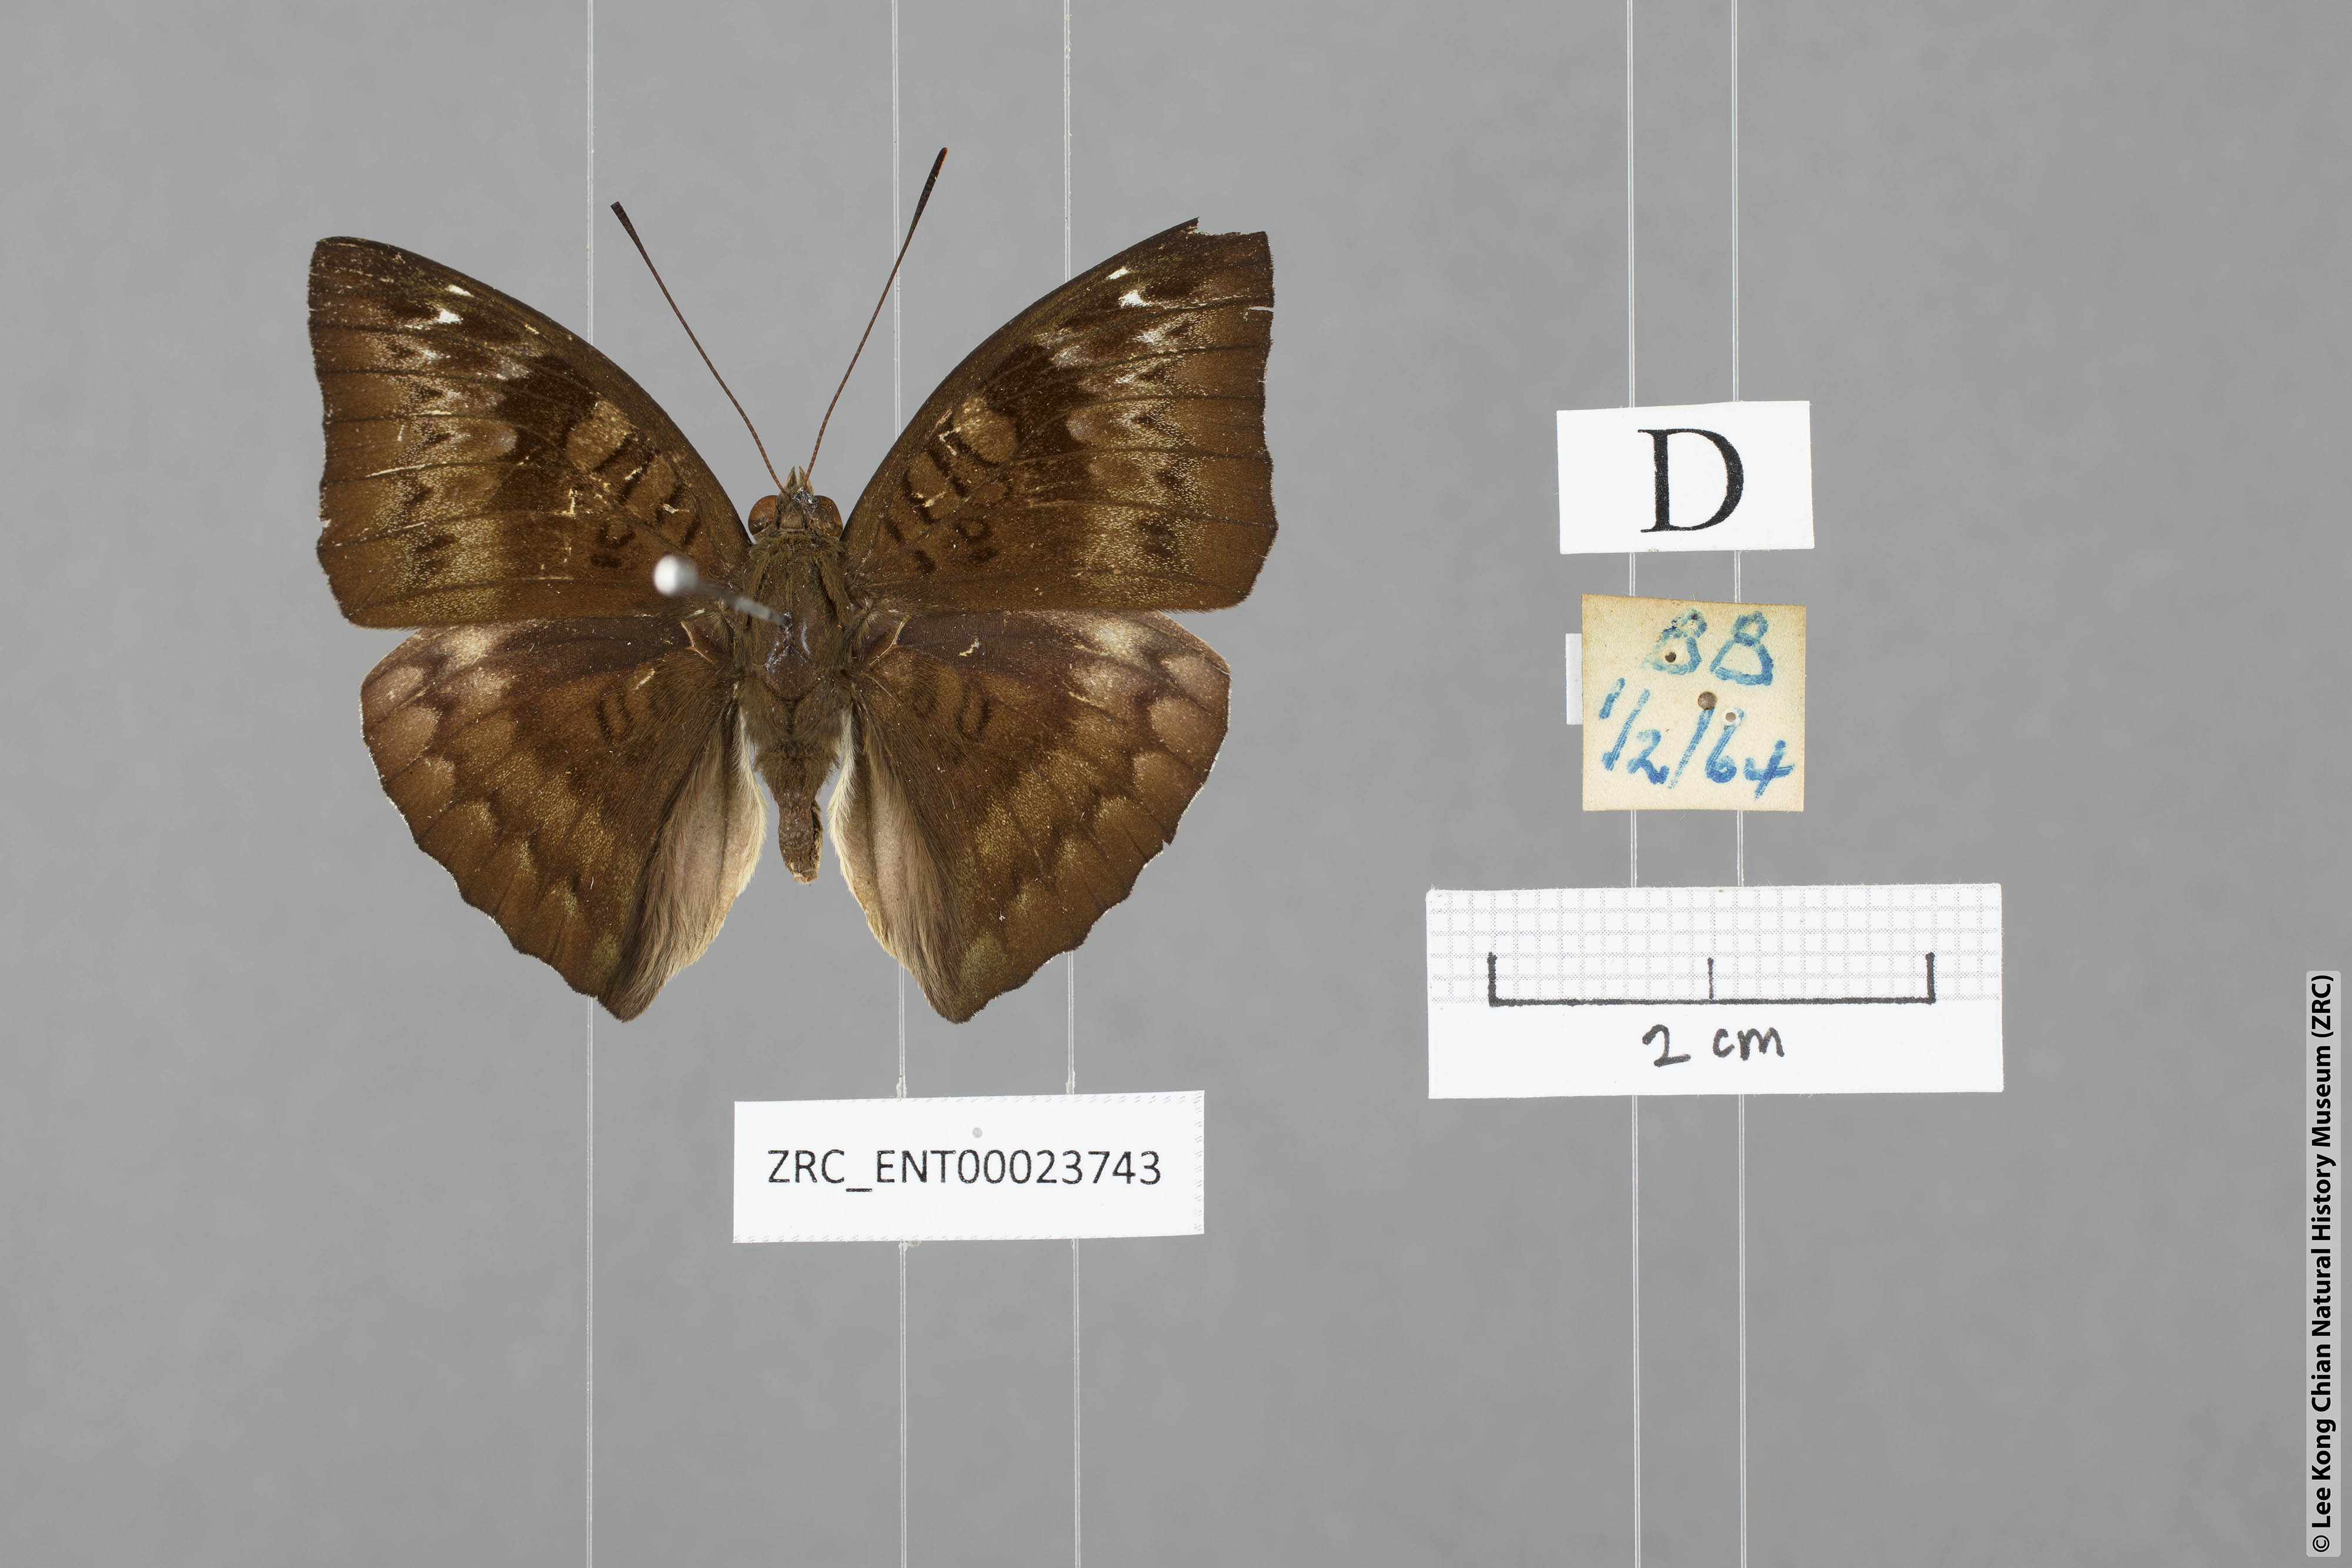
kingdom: Animalia
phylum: Arthropoda
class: Insecta
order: Lepidoptera
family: Nymphalidae
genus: Euthalia
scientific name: Euthalia monina
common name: Powdered baron
